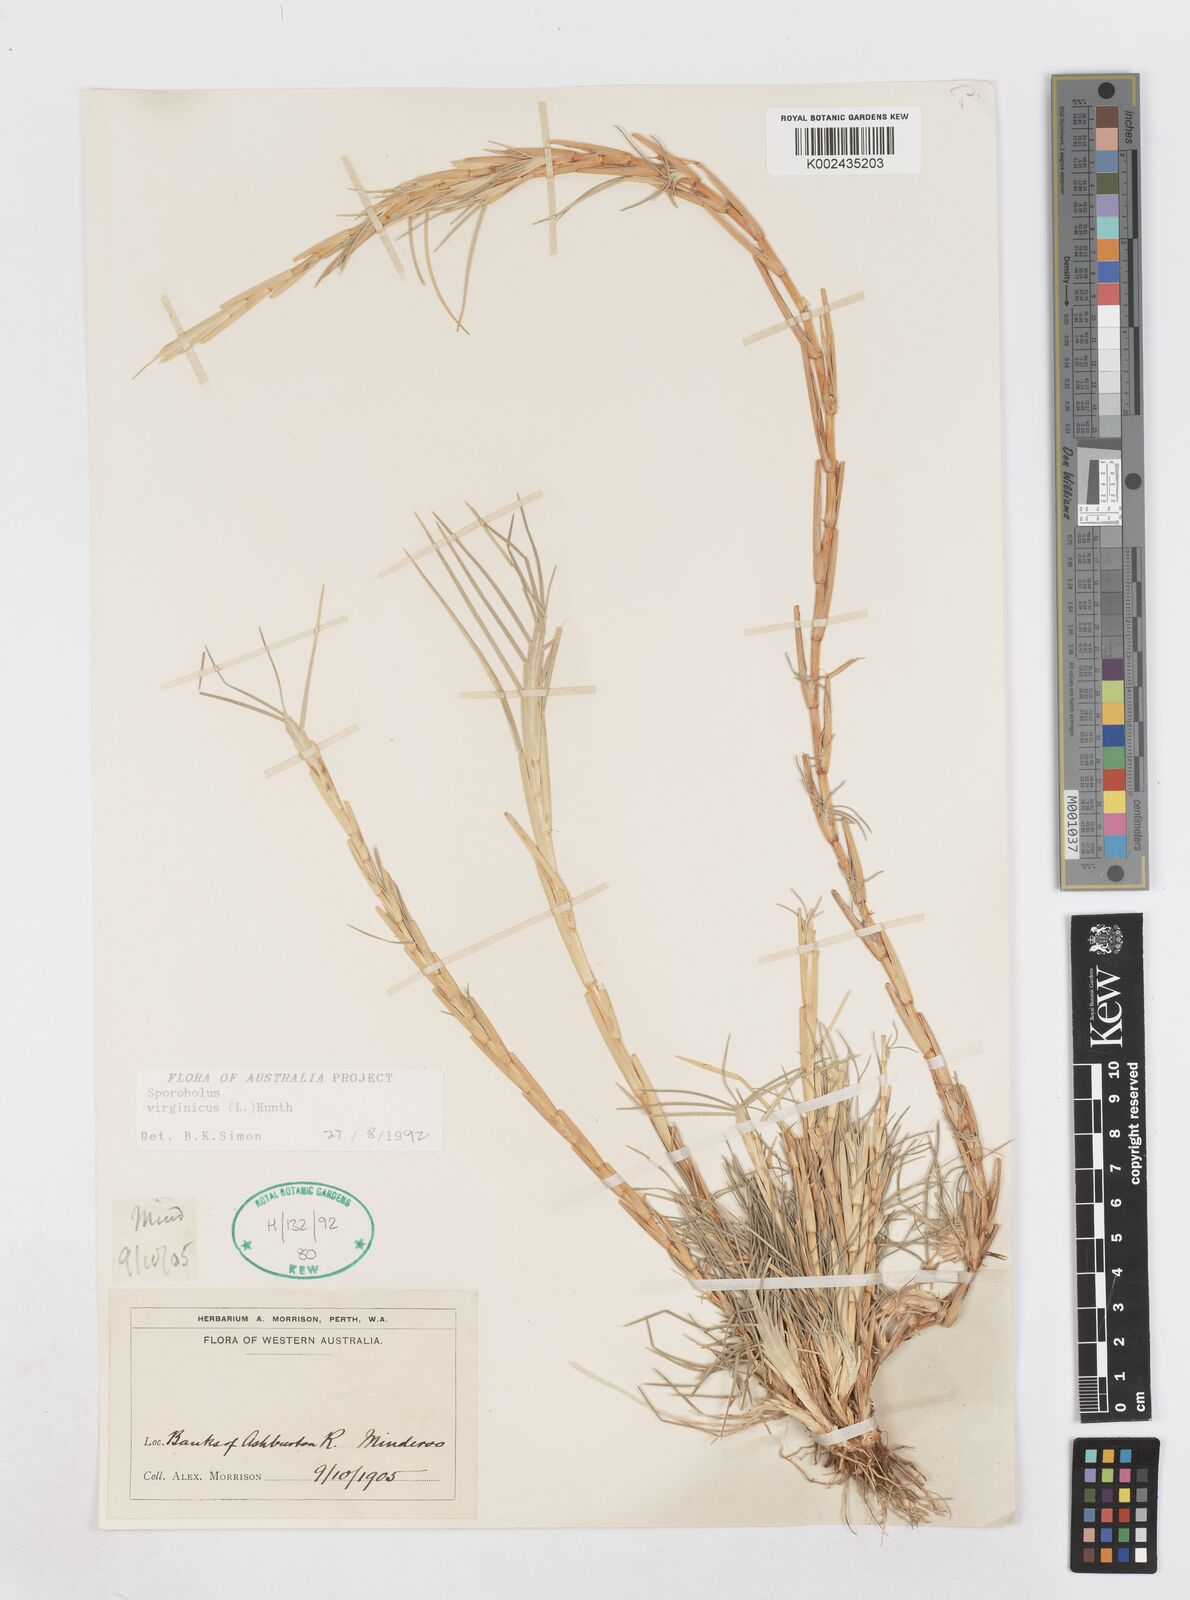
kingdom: Plantae
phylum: Tracheophyta
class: Liliopsida
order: Poales
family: Poaceae
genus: Sporobolus
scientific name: Sporobolus virginicus
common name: Beach dropseed
